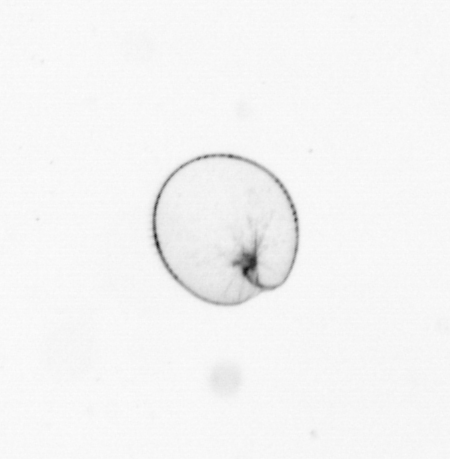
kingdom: Chromista
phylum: Myzozoa
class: Dinophyceae
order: Noctilucales
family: Noctilucaceae
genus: Noctiluca
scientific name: Noctiluca scintillans
